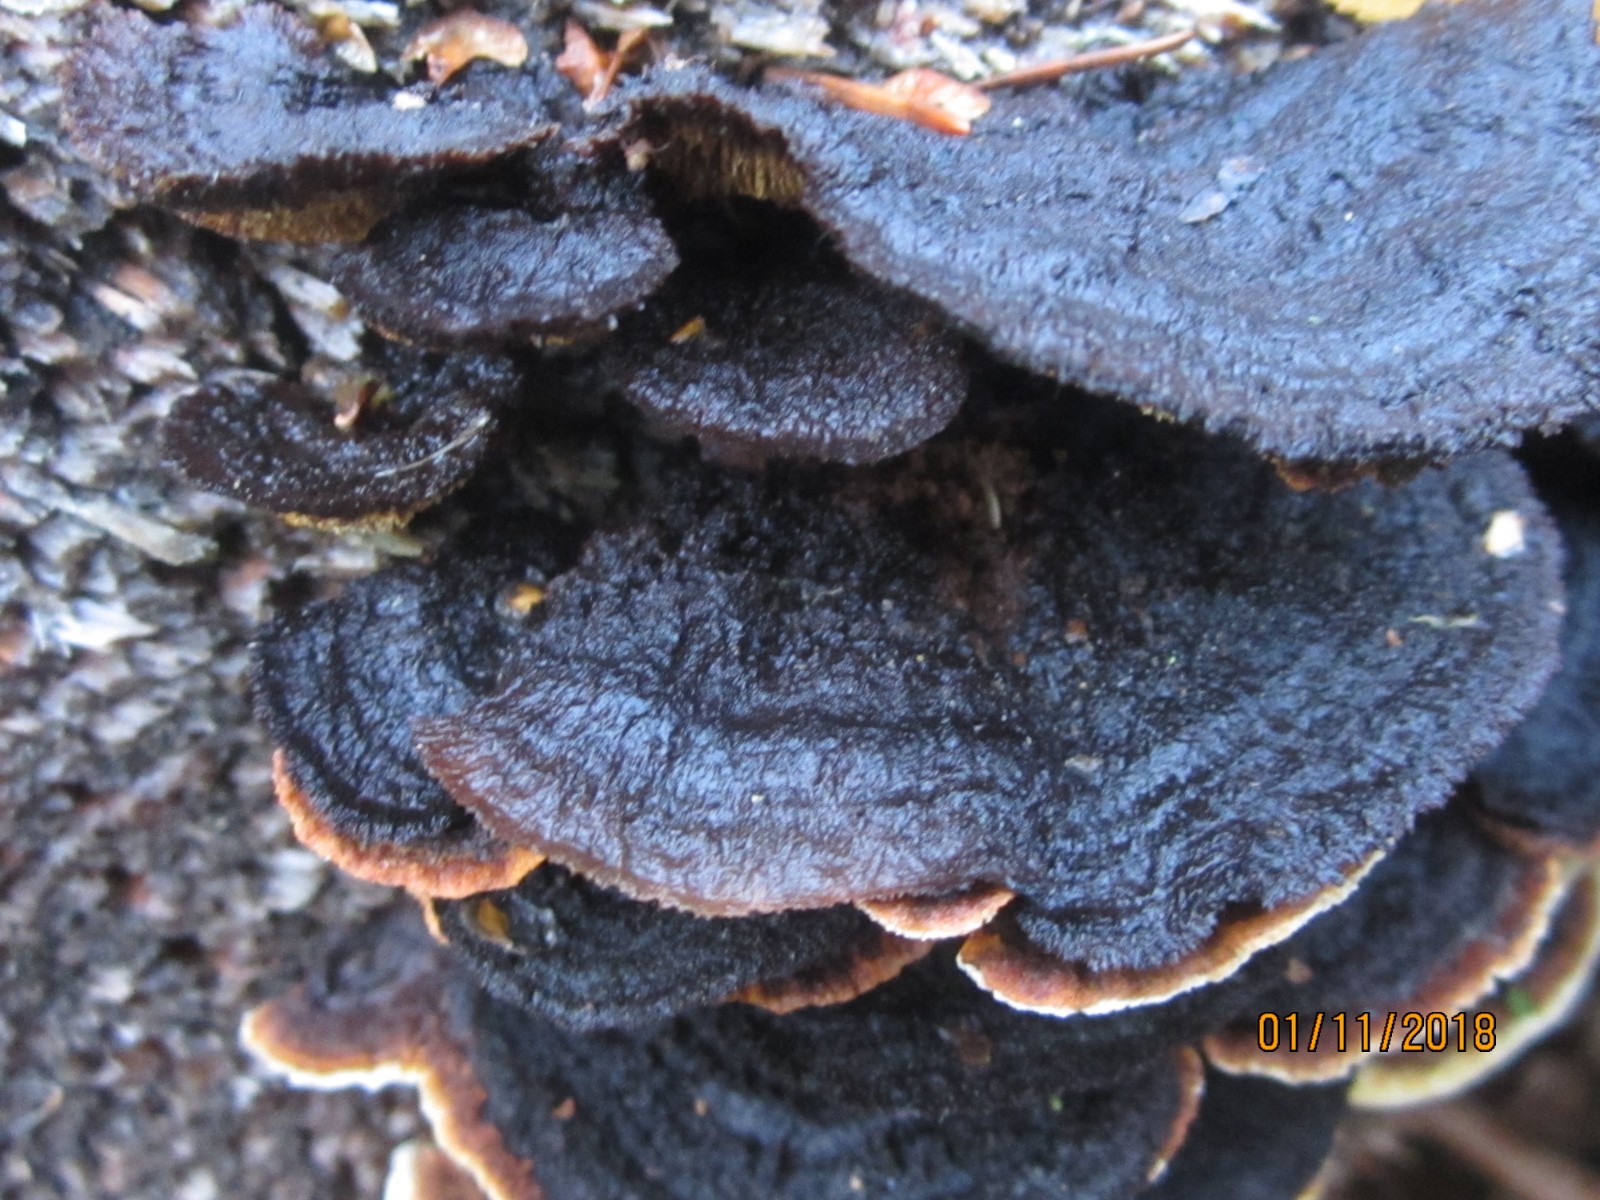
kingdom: Fungi
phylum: Basidiomycota
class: Agaricomycetes
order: Gloeophyllales
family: Gloeophyllaceae
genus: Gloeophyllum
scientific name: Gloeophyllum sepiarium
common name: fyrre-korkhat
